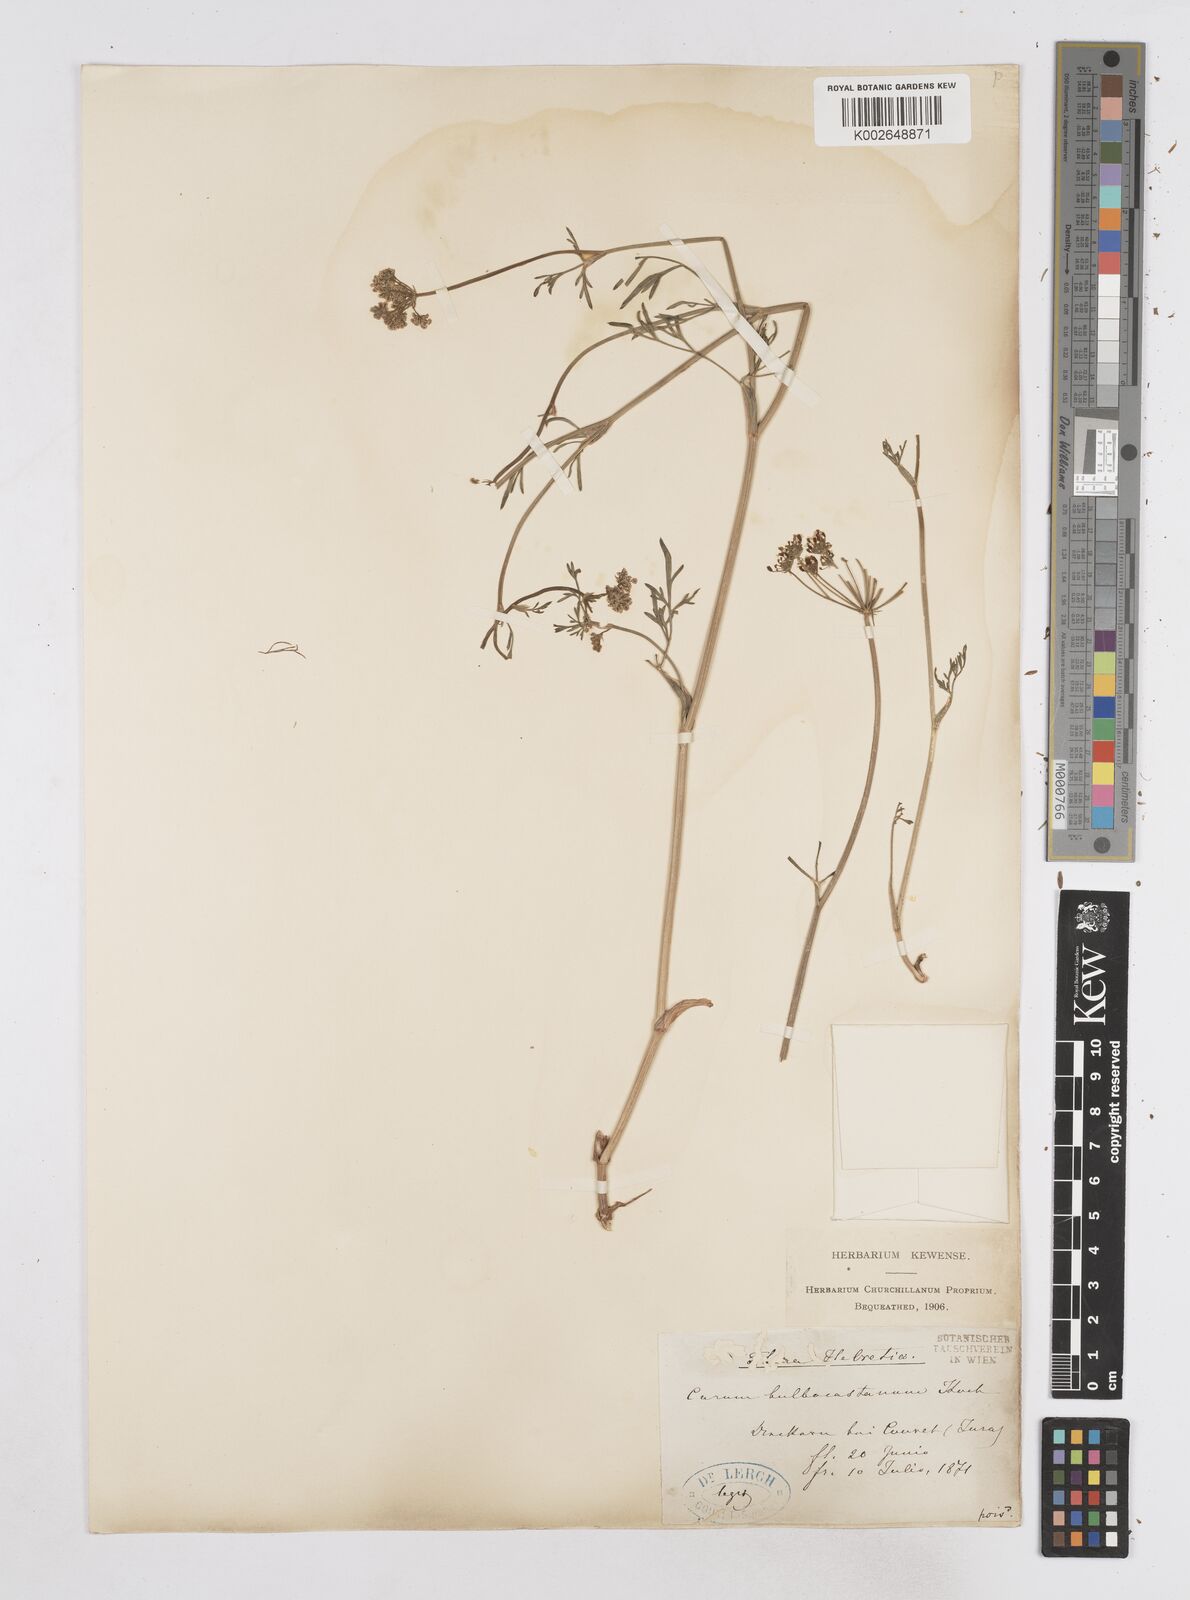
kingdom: Plantae
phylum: Tracheophyta
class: Magnoliopsida
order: Apiales
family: Apiaceae
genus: Bunium
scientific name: Bunium bulbocastanum
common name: Great pignut
